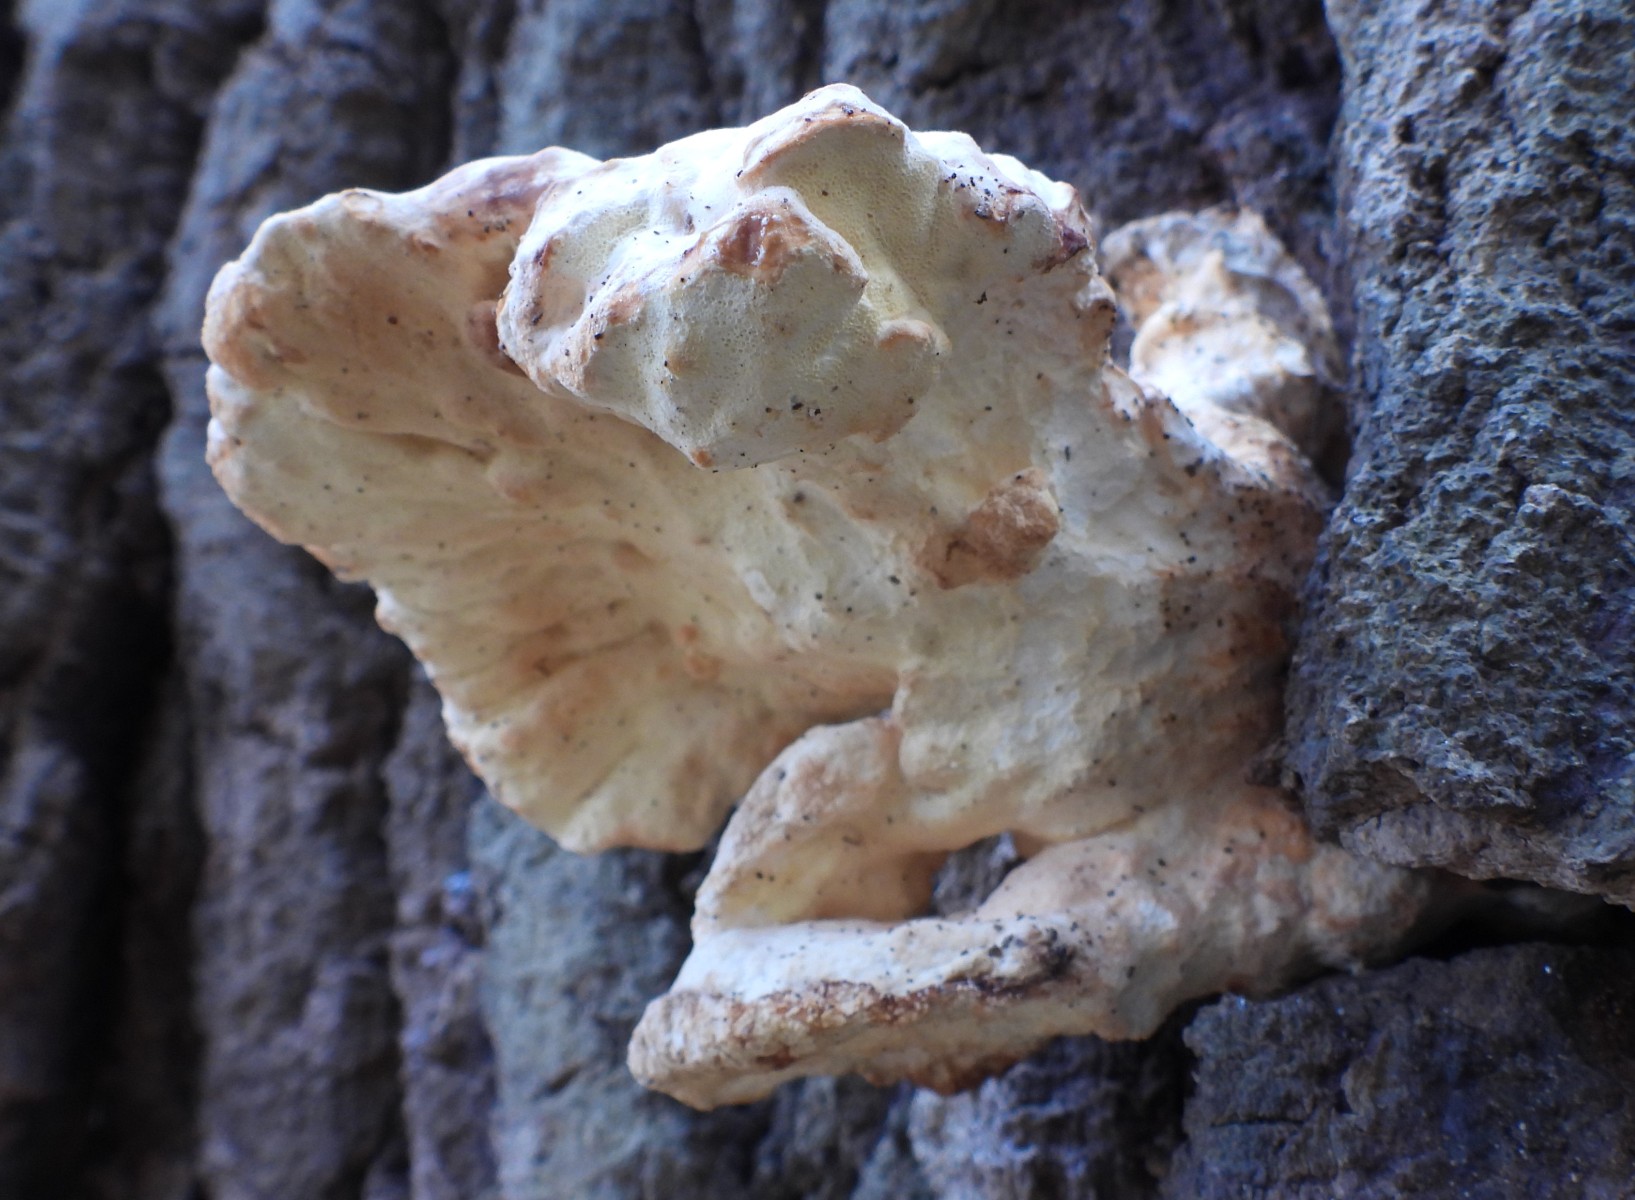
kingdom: Fungi
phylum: Basidiomycota
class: Agaricomycetes
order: Polyporales
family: Laetiporaceae
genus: Laetiporus
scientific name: Laetiporus sulphureus
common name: svovlporesvamp
